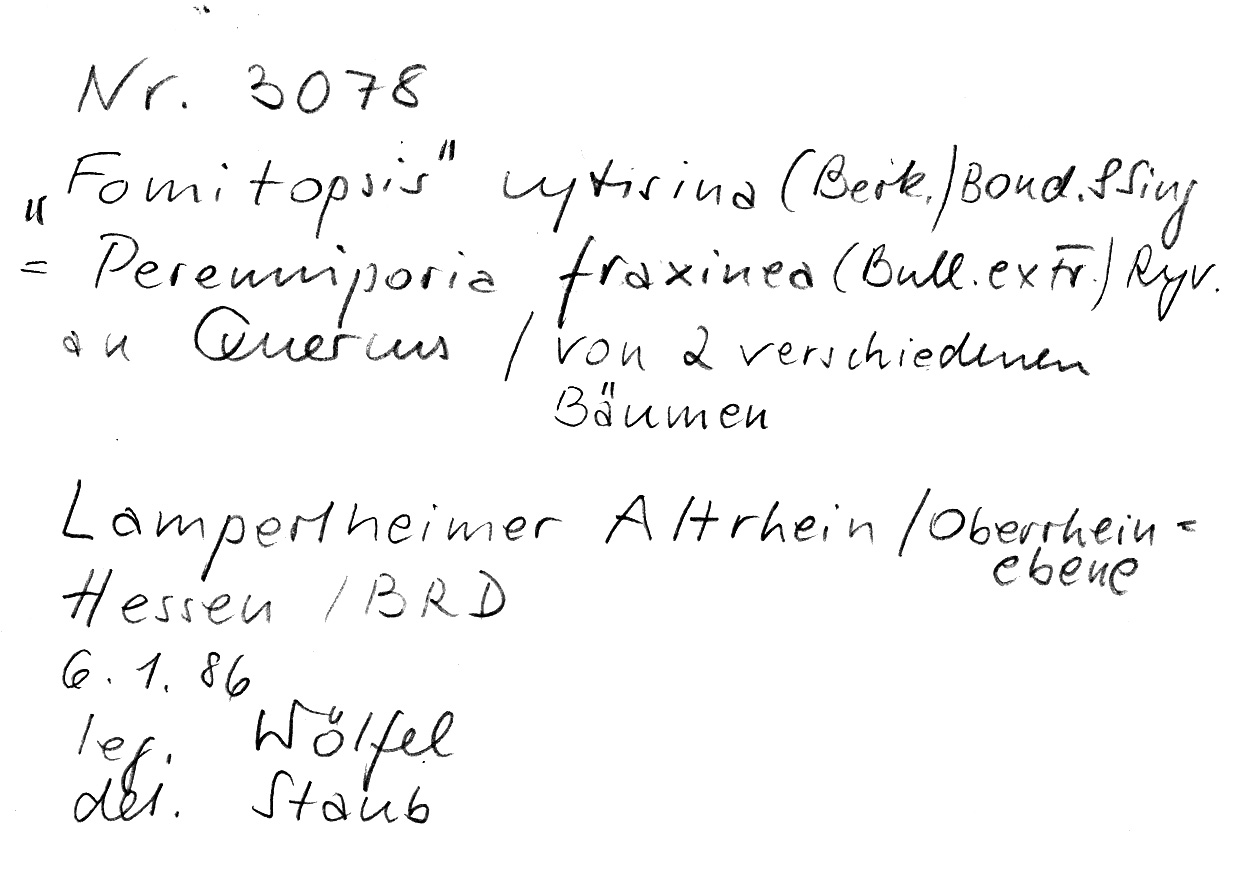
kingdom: Plantae
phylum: Tracheophyta
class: Magnoliopsida
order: Fagales
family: Fagaceae
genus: Quercus
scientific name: Quercus
